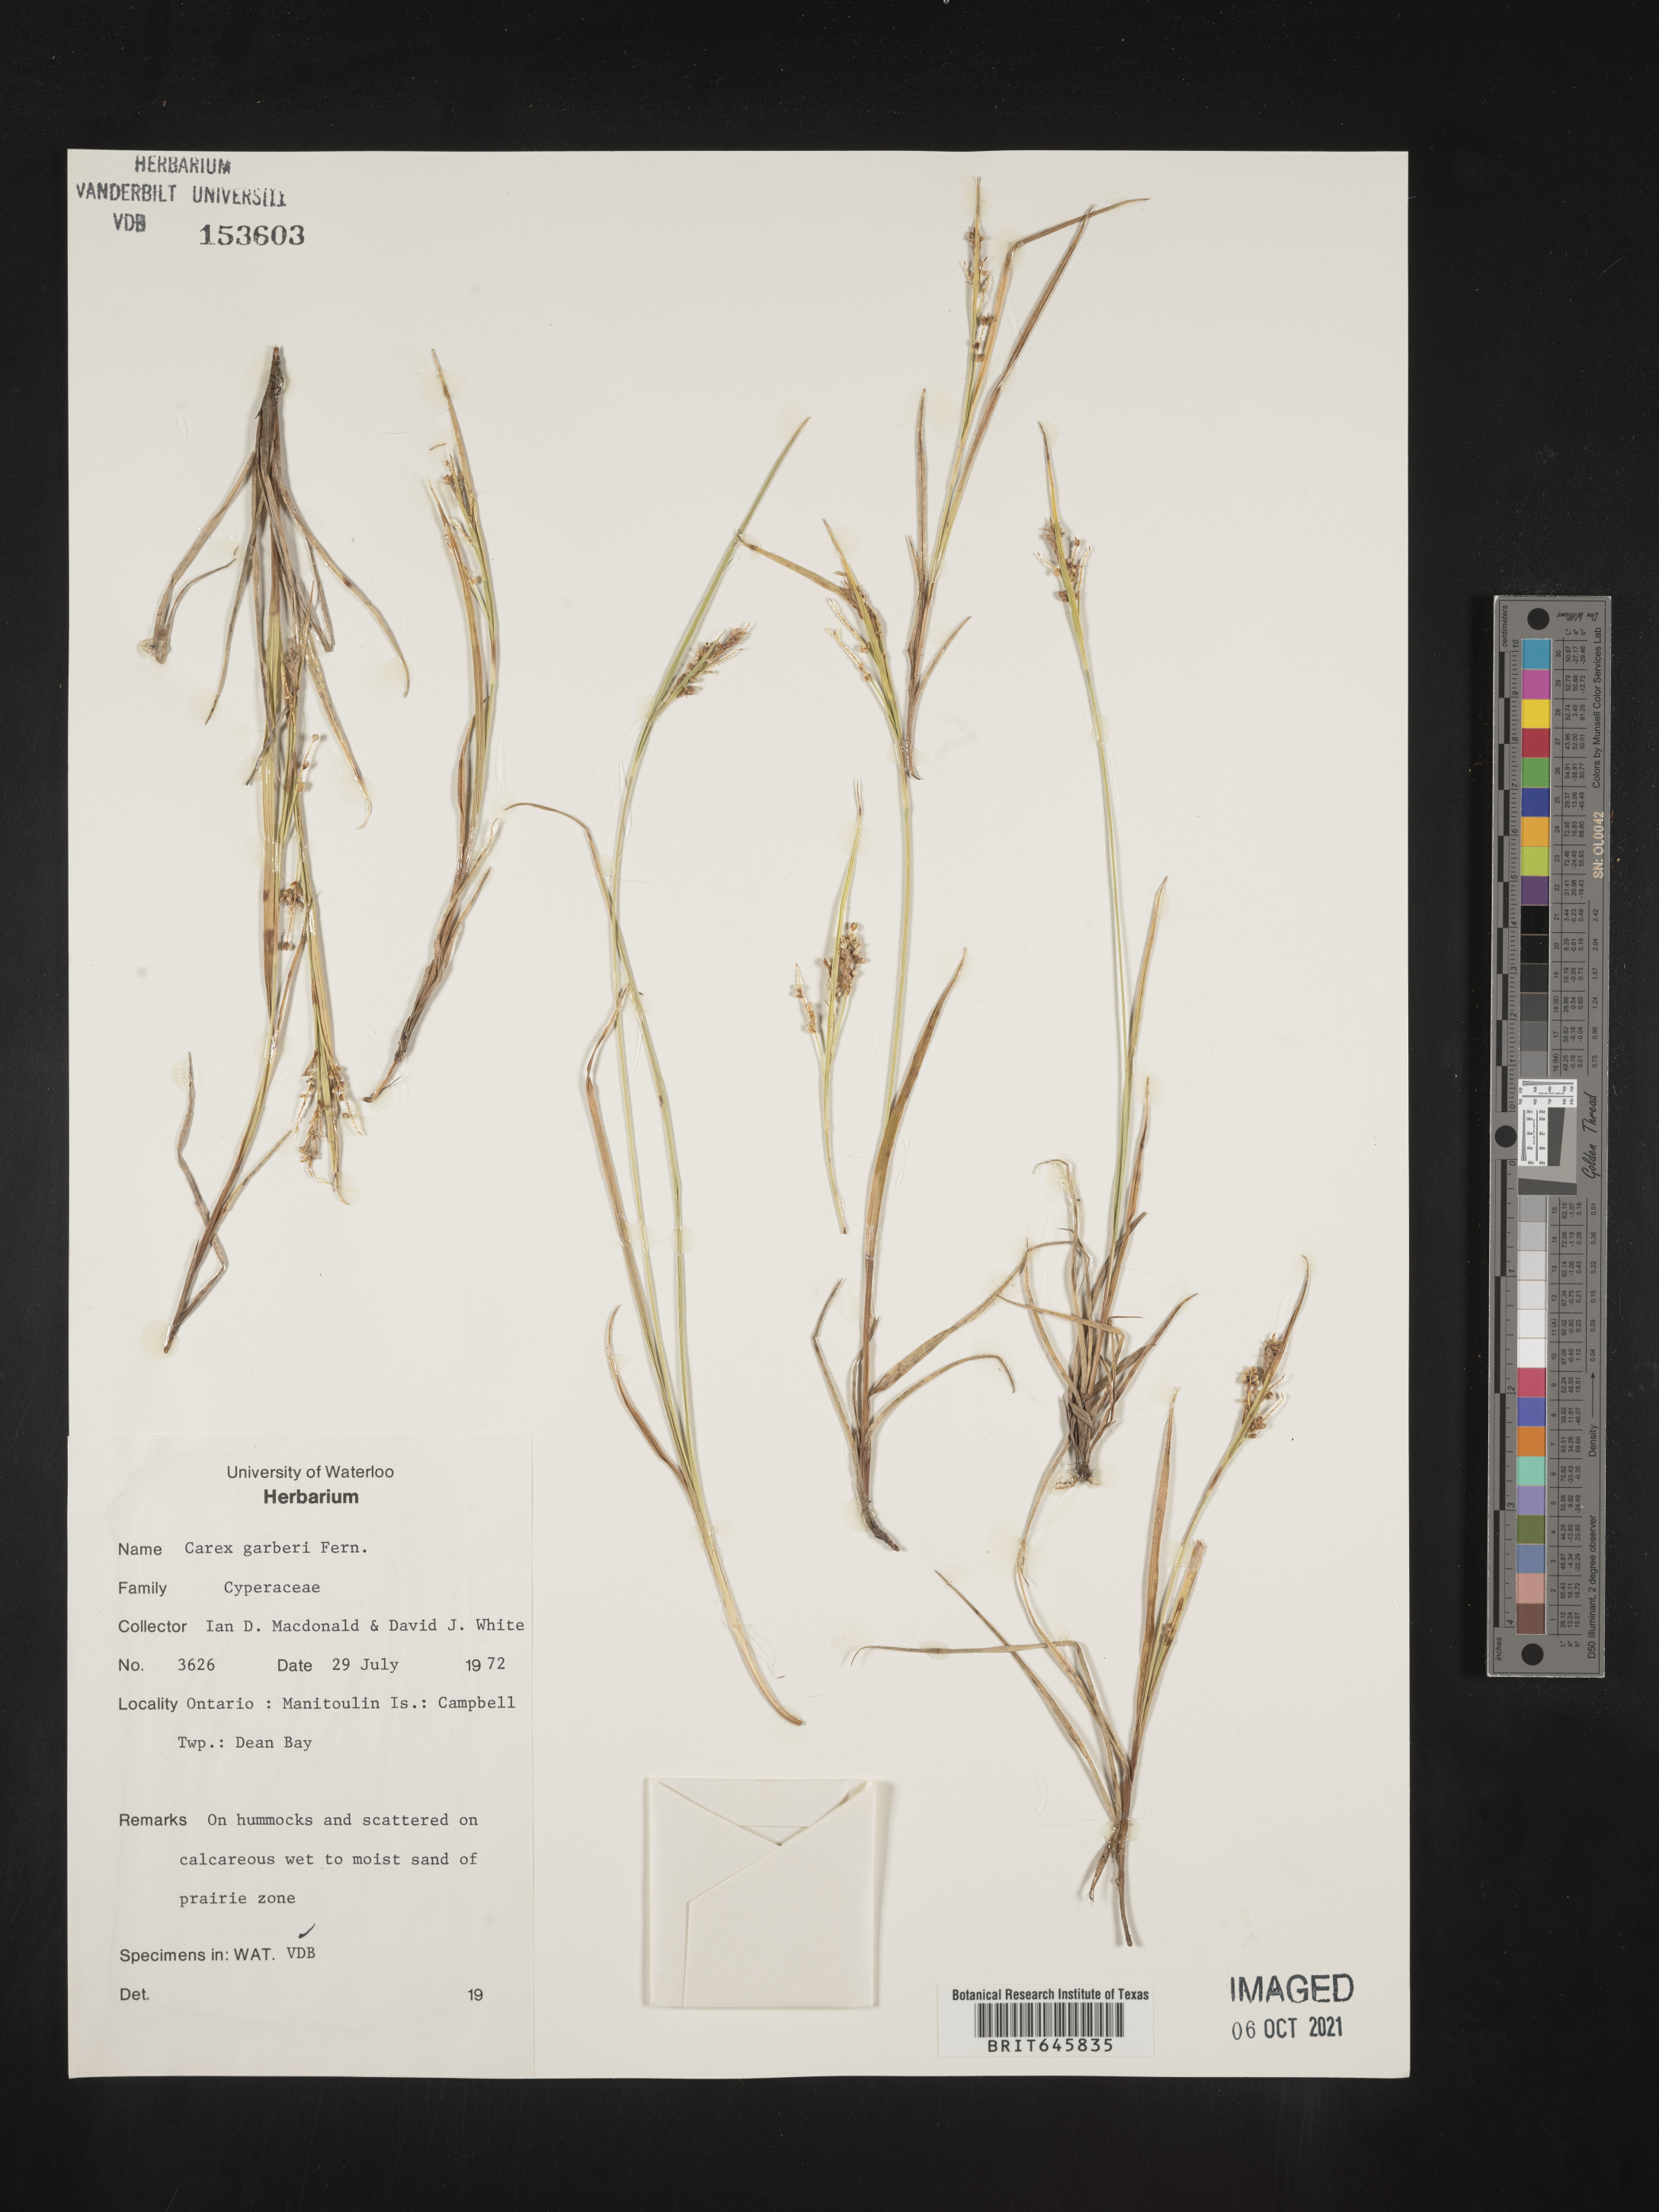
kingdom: Plantae
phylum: Tracheophyta
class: Liliopsida
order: Poales
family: Cyperaceae
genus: Carex
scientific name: Carex garberi
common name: Elk sedge
